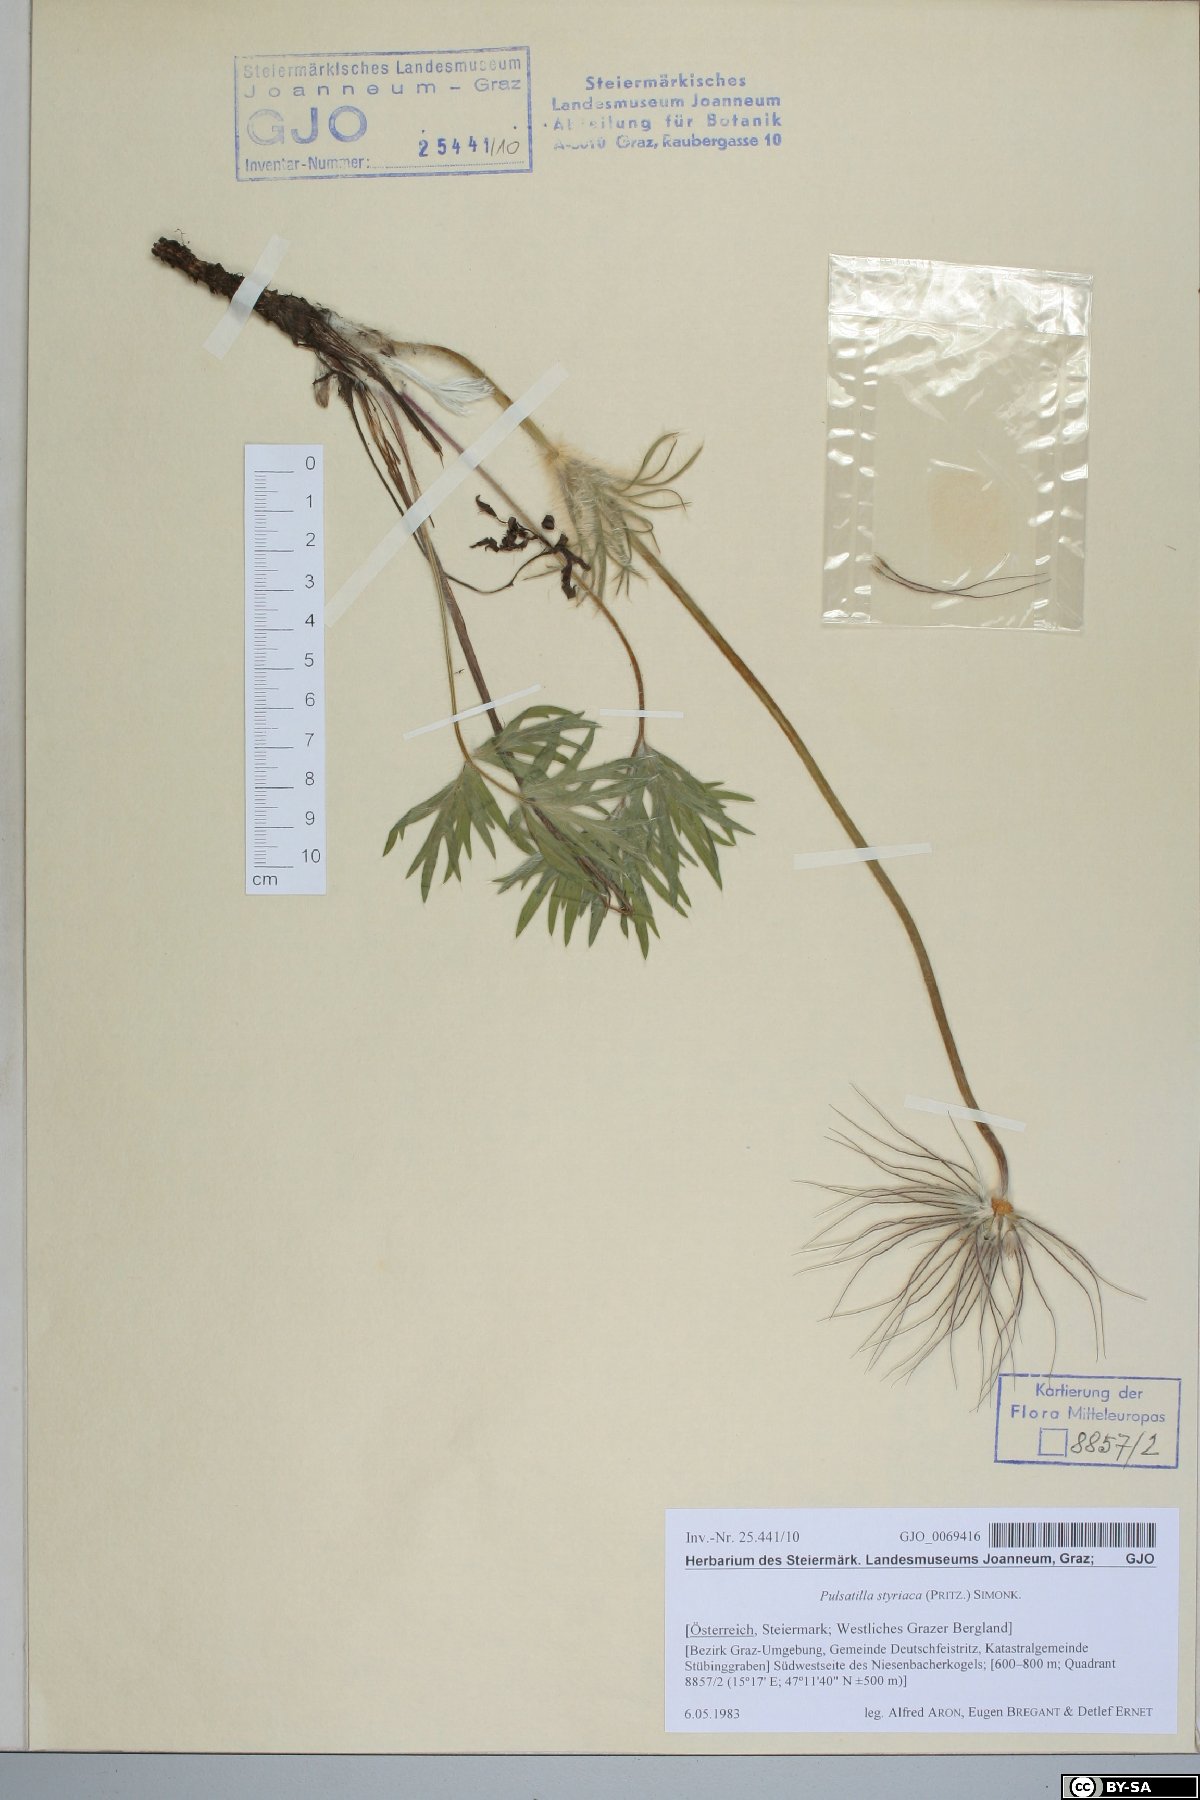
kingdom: Plantae
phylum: Tracheophyta
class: Magnoliopsida
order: Ranunculales
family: Ranunculaceae
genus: Pulsatilla
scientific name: Pulsatilla halleri
